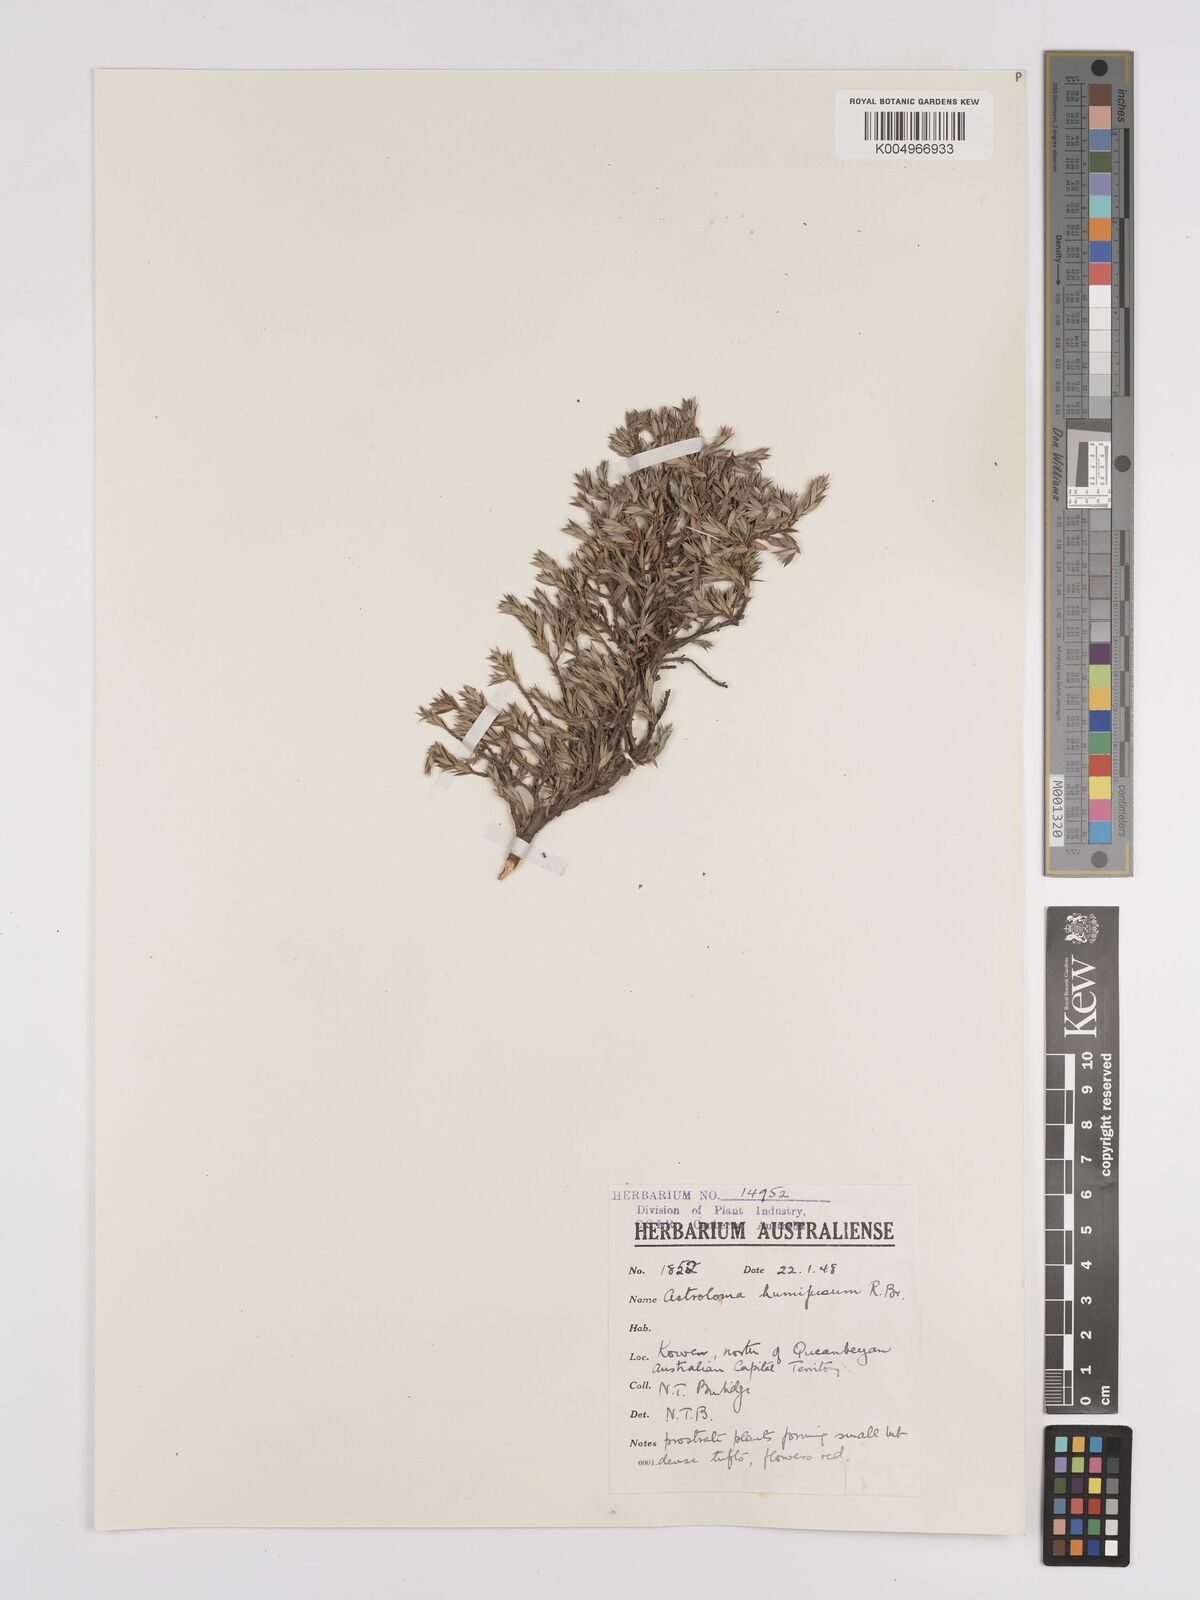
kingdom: Plantae
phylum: Tracheophyta
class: Magnoliopsida
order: Ericales
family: Ericaceae
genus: Styphelia
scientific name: Styphelia humifusa
